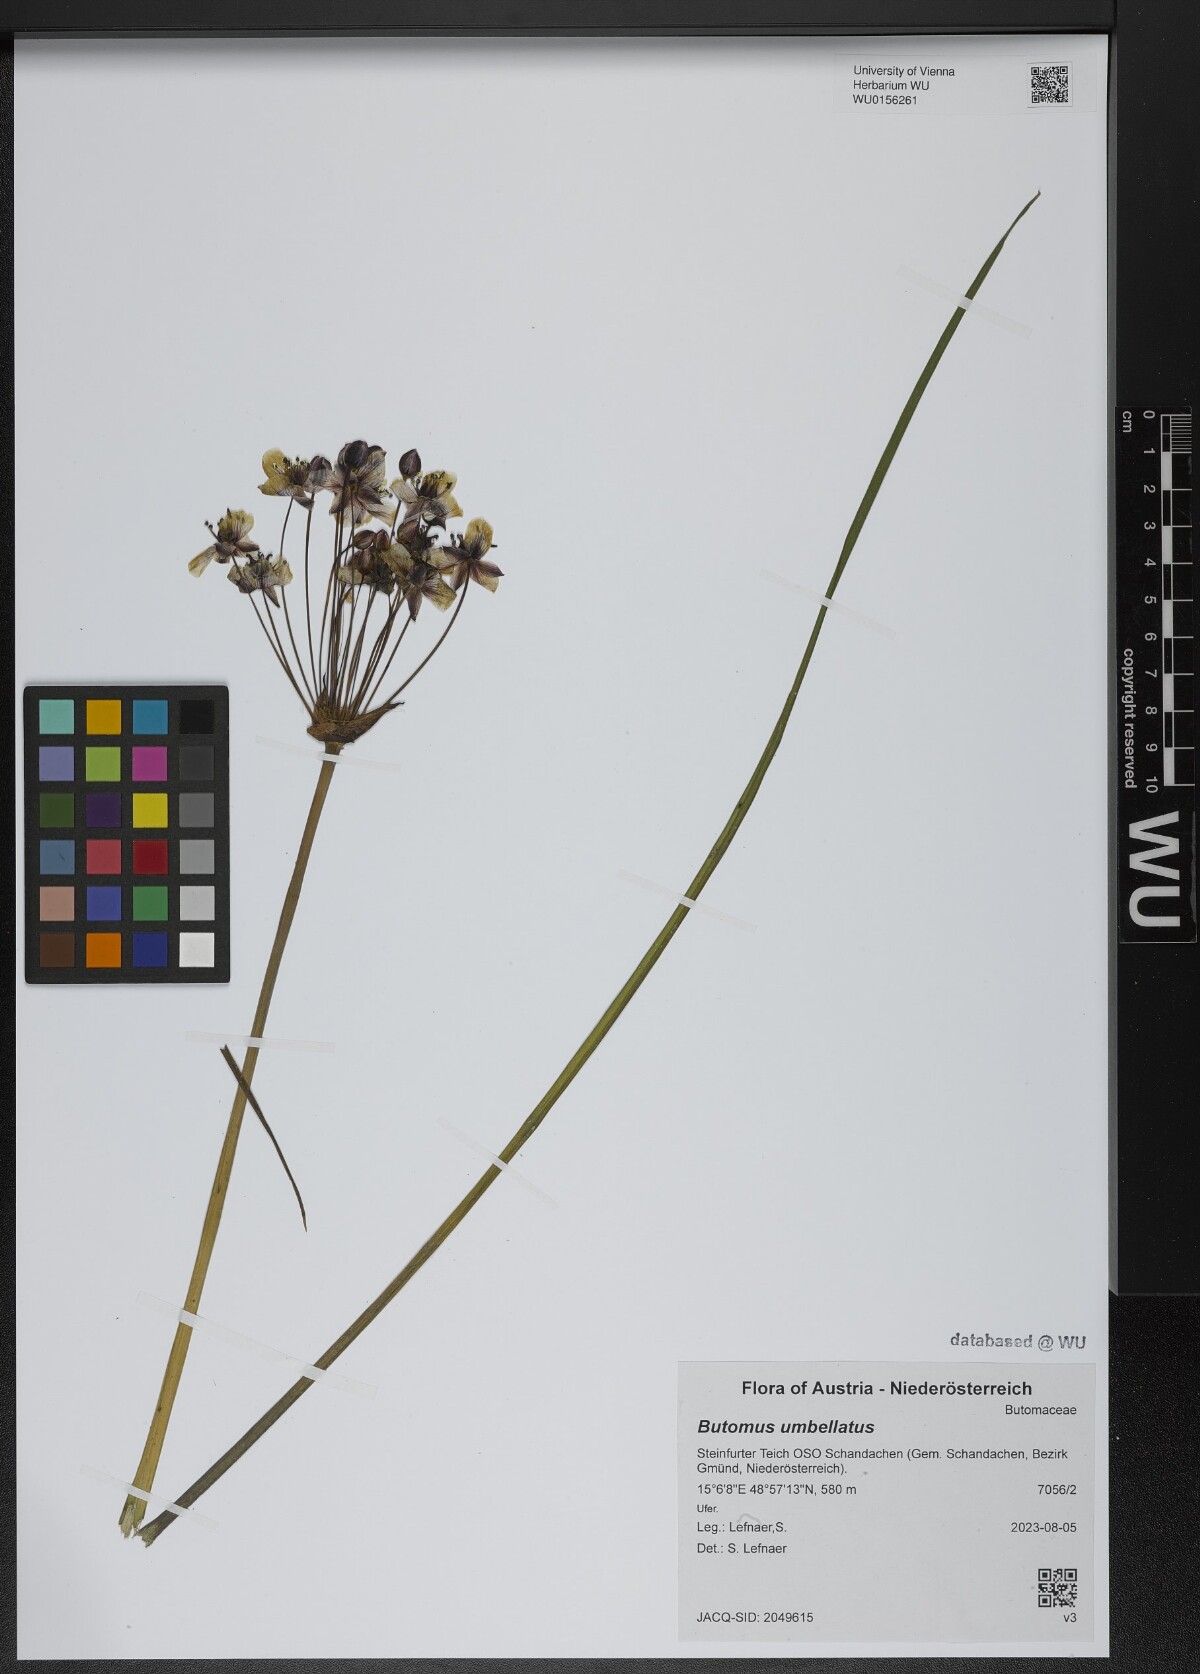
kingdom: Plantae
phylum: Tracheophyta
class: Liliopsida
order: Alismatales
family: Butomaceae
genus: Butomus
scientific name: Butomus umbellatus
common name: Flowering-rush
